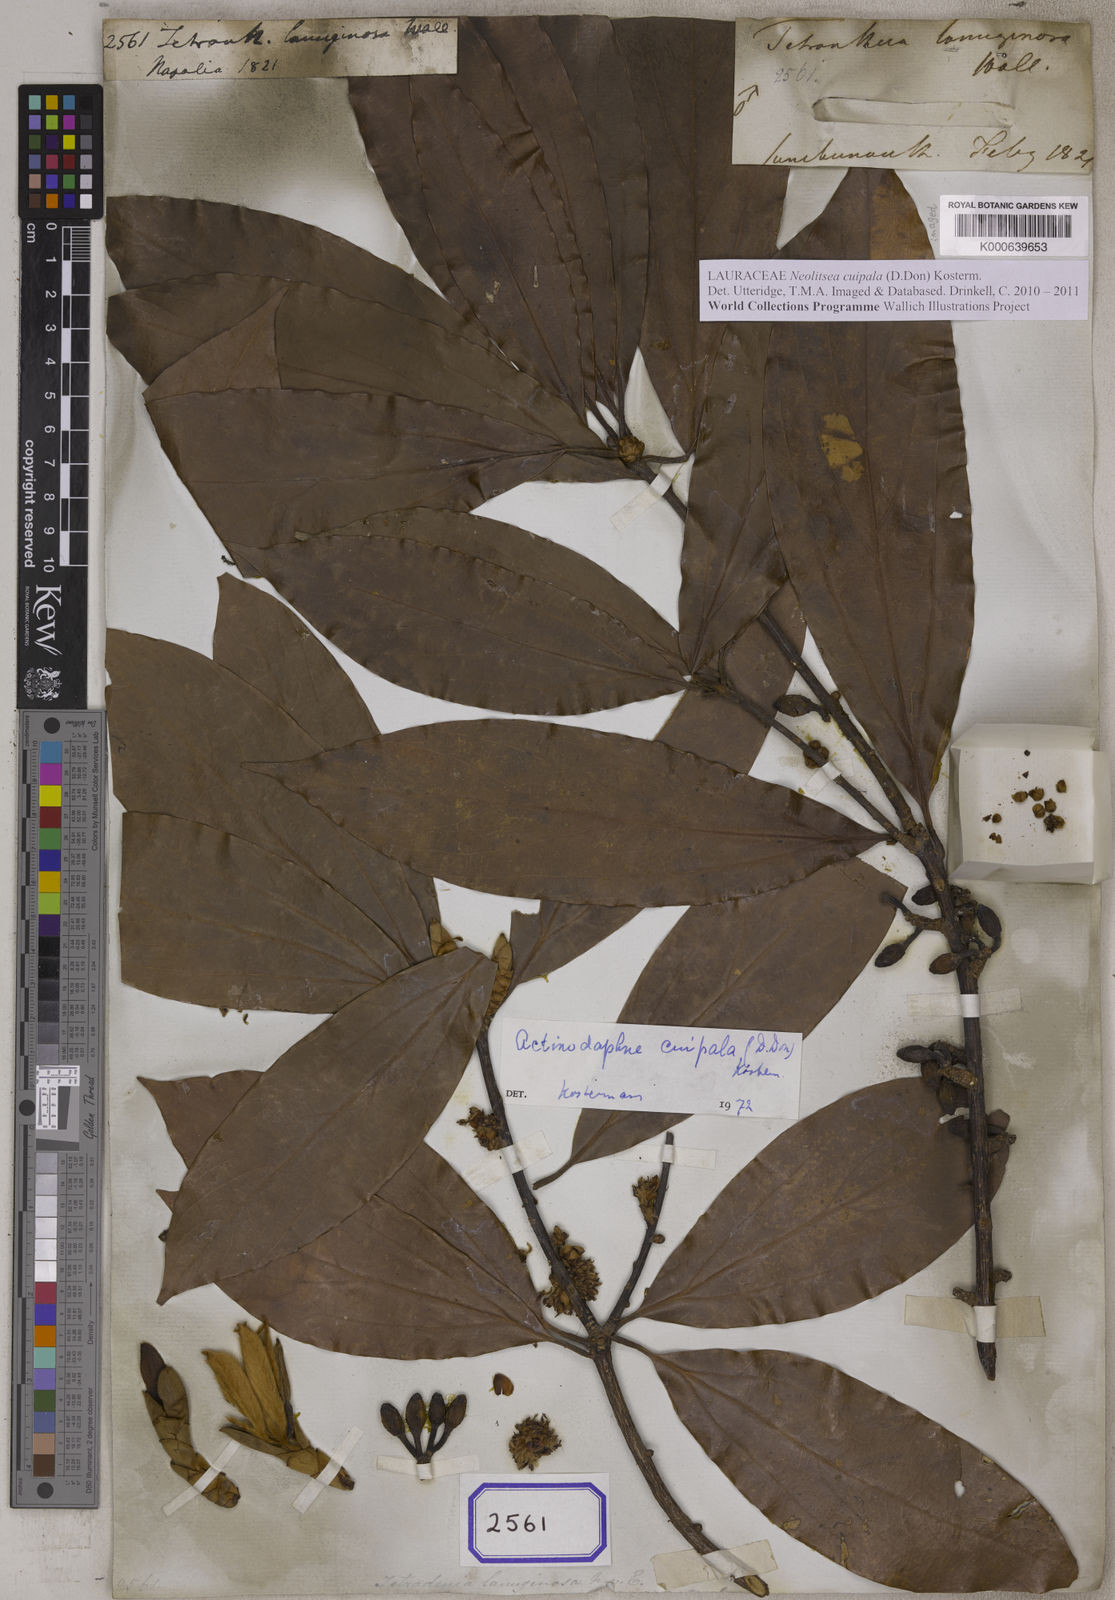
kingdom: Plantae
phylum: Tracheophyta
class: Magnoliopsida
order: Laurales
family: Lauraceae
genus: Neolitsea
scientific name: Neolitsea cuipala
